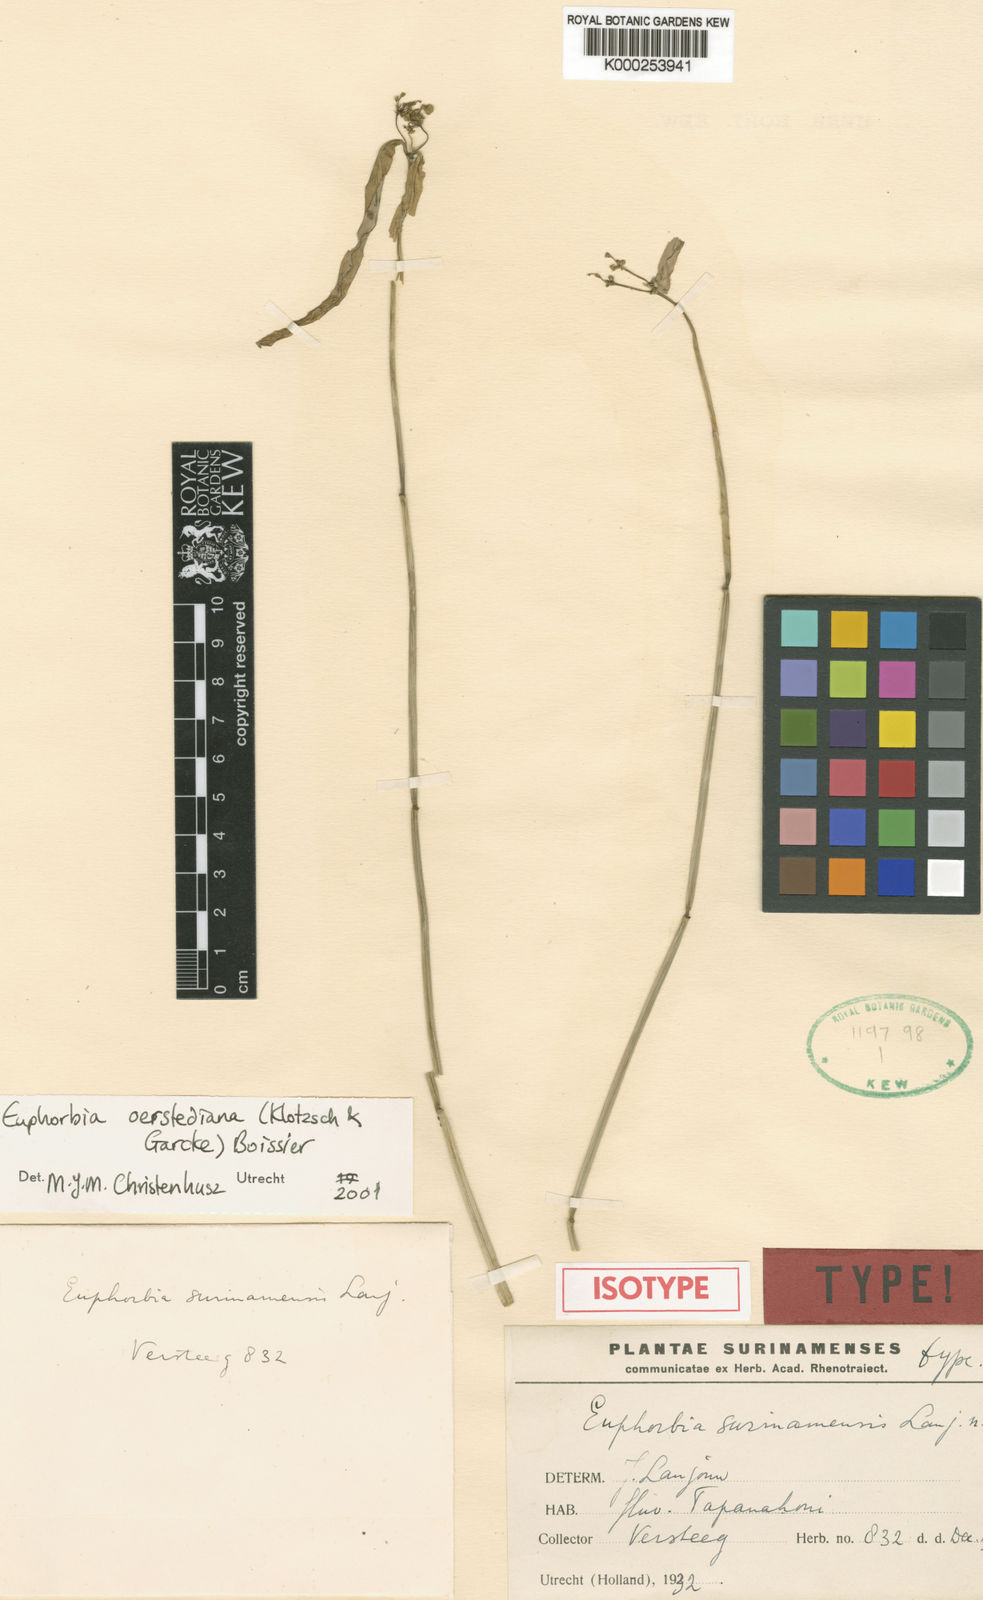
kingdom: Plantae
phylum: Tracheophyta
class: Magnoliopsida
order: Malpighiales
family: Euphorbiaceae
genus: Euphorbia
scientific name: Euphorbia oerstediana
